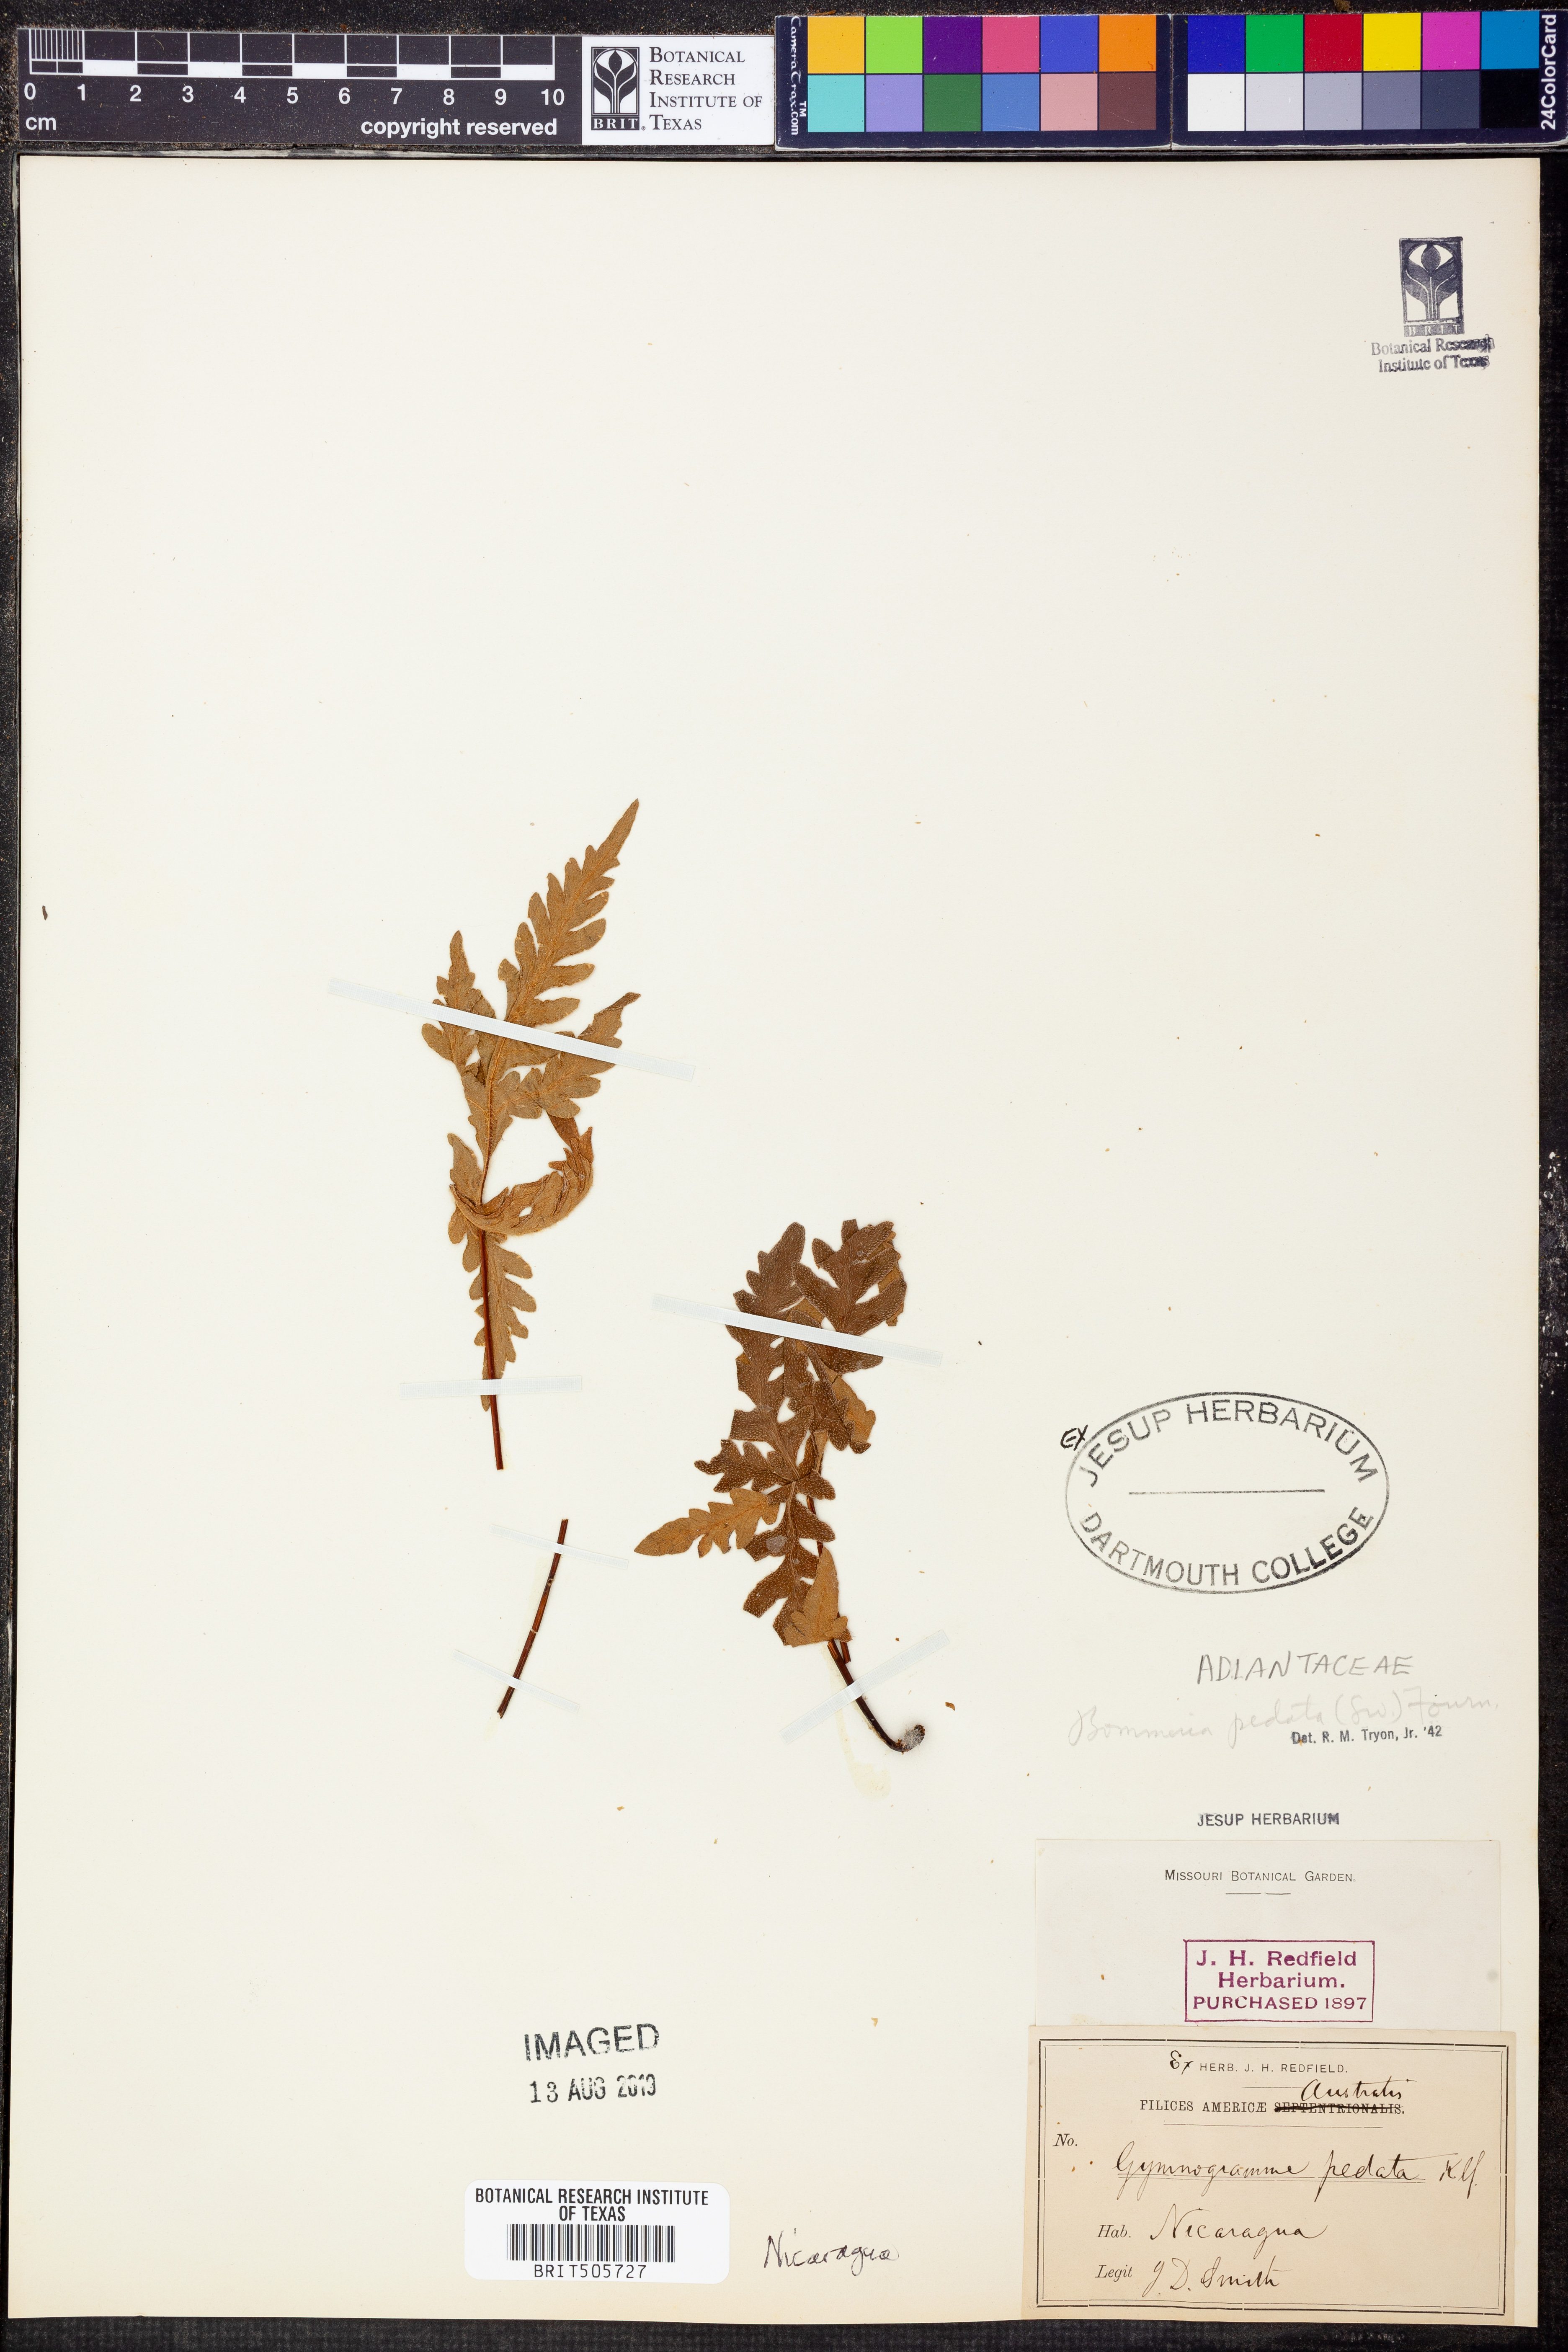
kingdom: Plantae
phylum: Tracheophyta
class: Polypodiopsida
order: Polypodiales
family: Pteridaceae
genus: Bommeria
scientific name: Bommeria pedata
